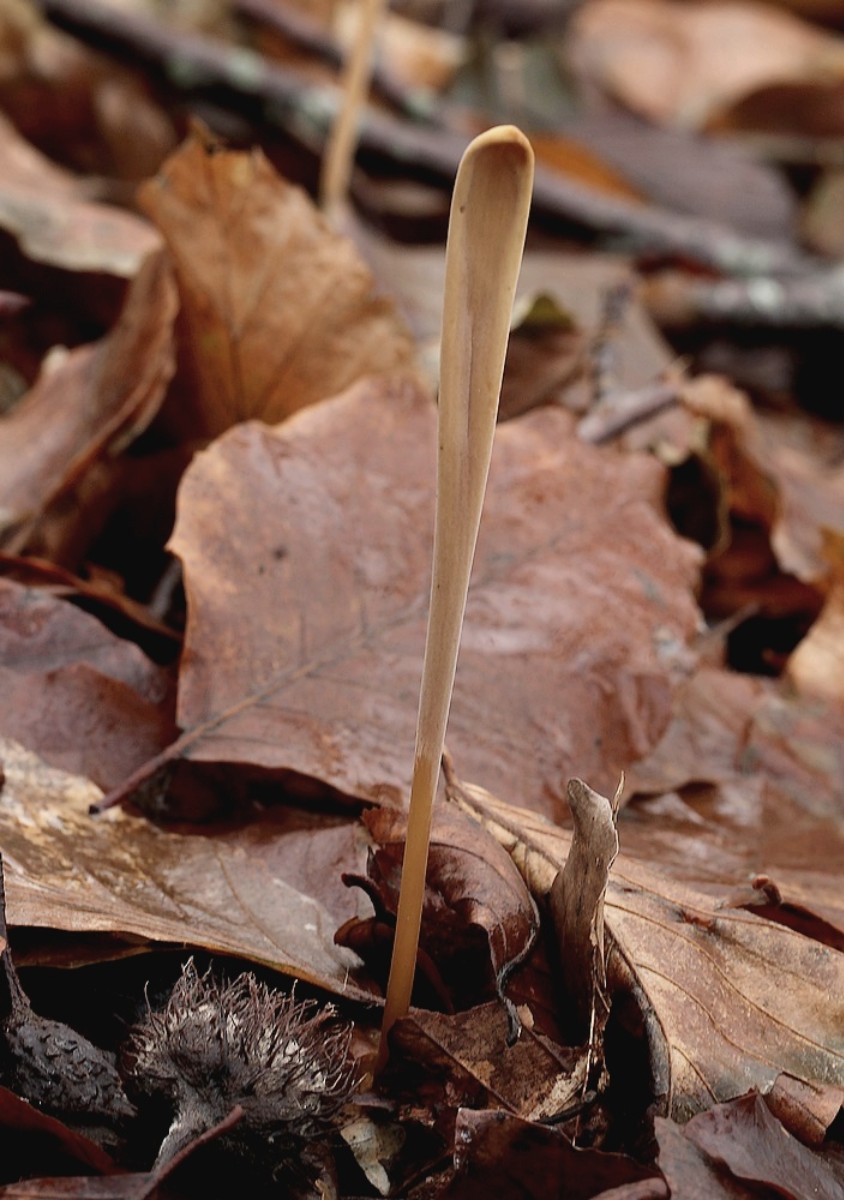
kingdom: Fungi
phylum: Basidiomycota
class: Agaricomycetes
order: Agaricales
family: Typhulaceae
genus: Typhula
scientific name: Typhula fistulosa
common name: pibet rørkølle
